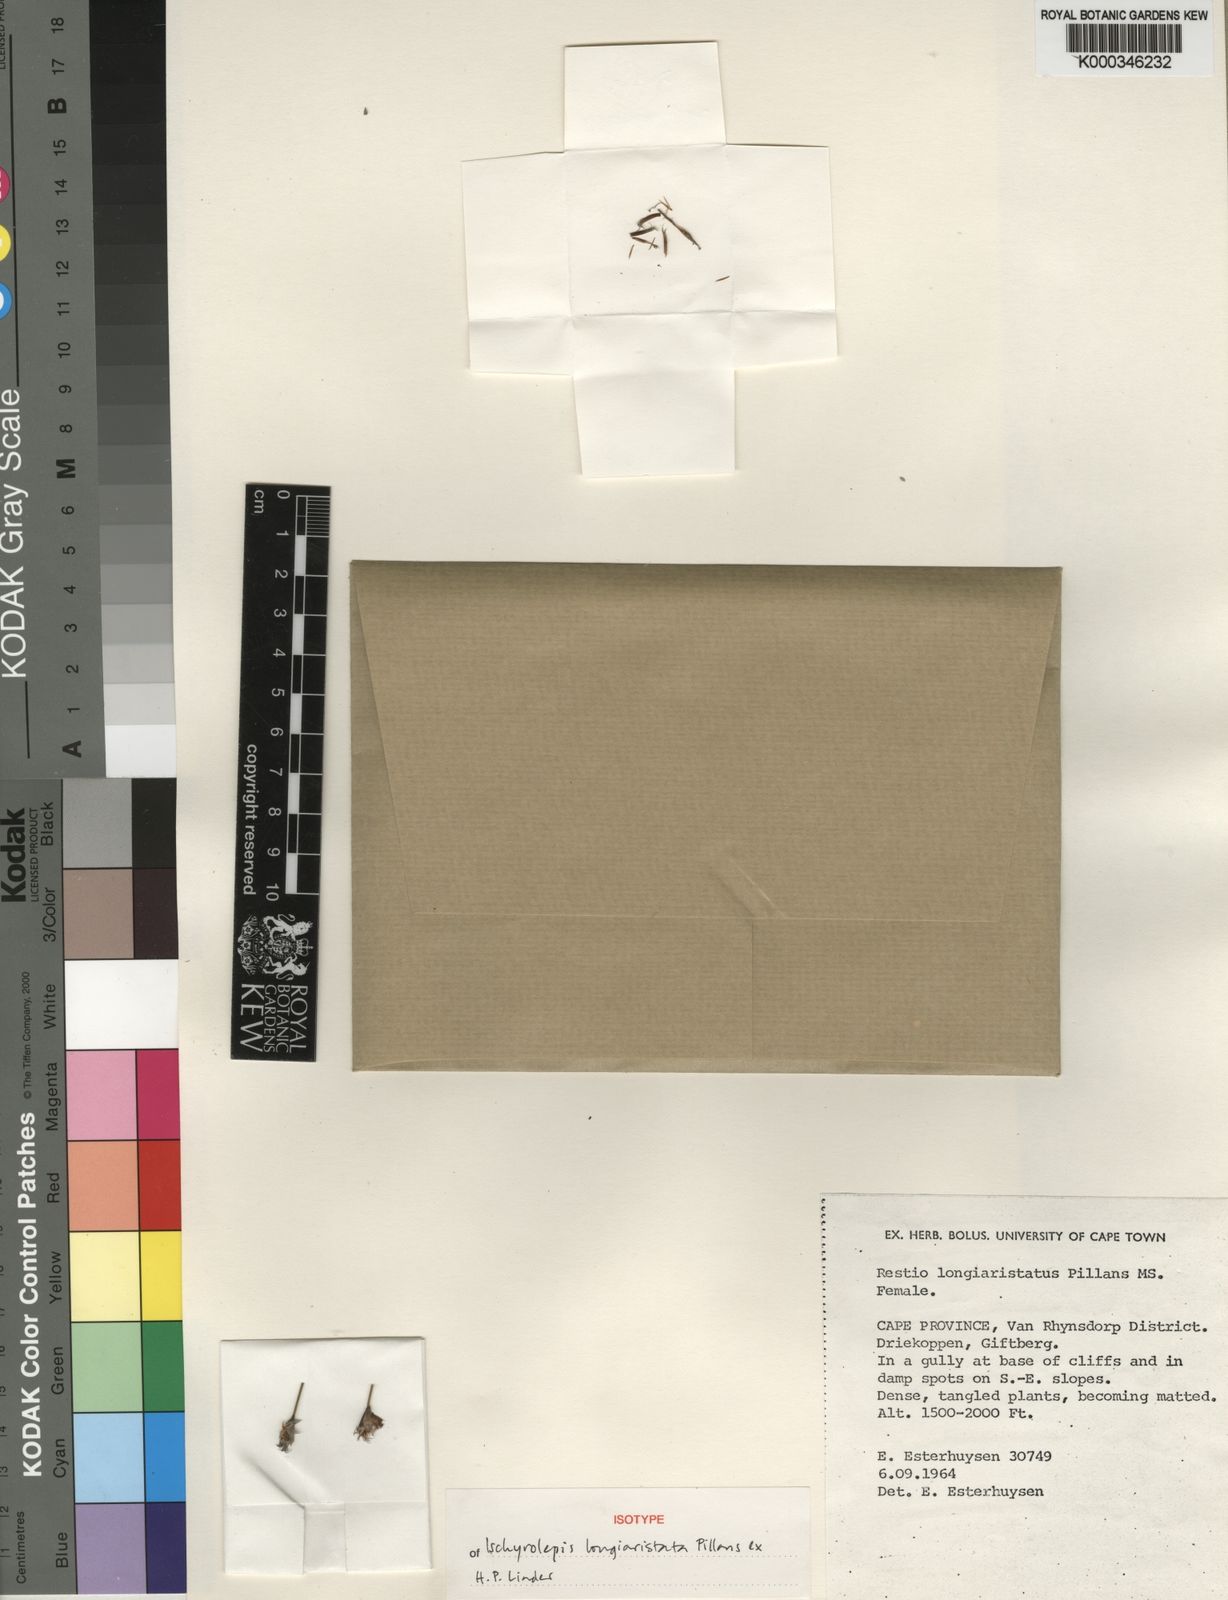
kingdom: Plantae
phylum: Tracheophyta
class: Liliopsida
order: Poales
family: Restionaceae
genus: Restio
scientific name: Restio longiaristatus
